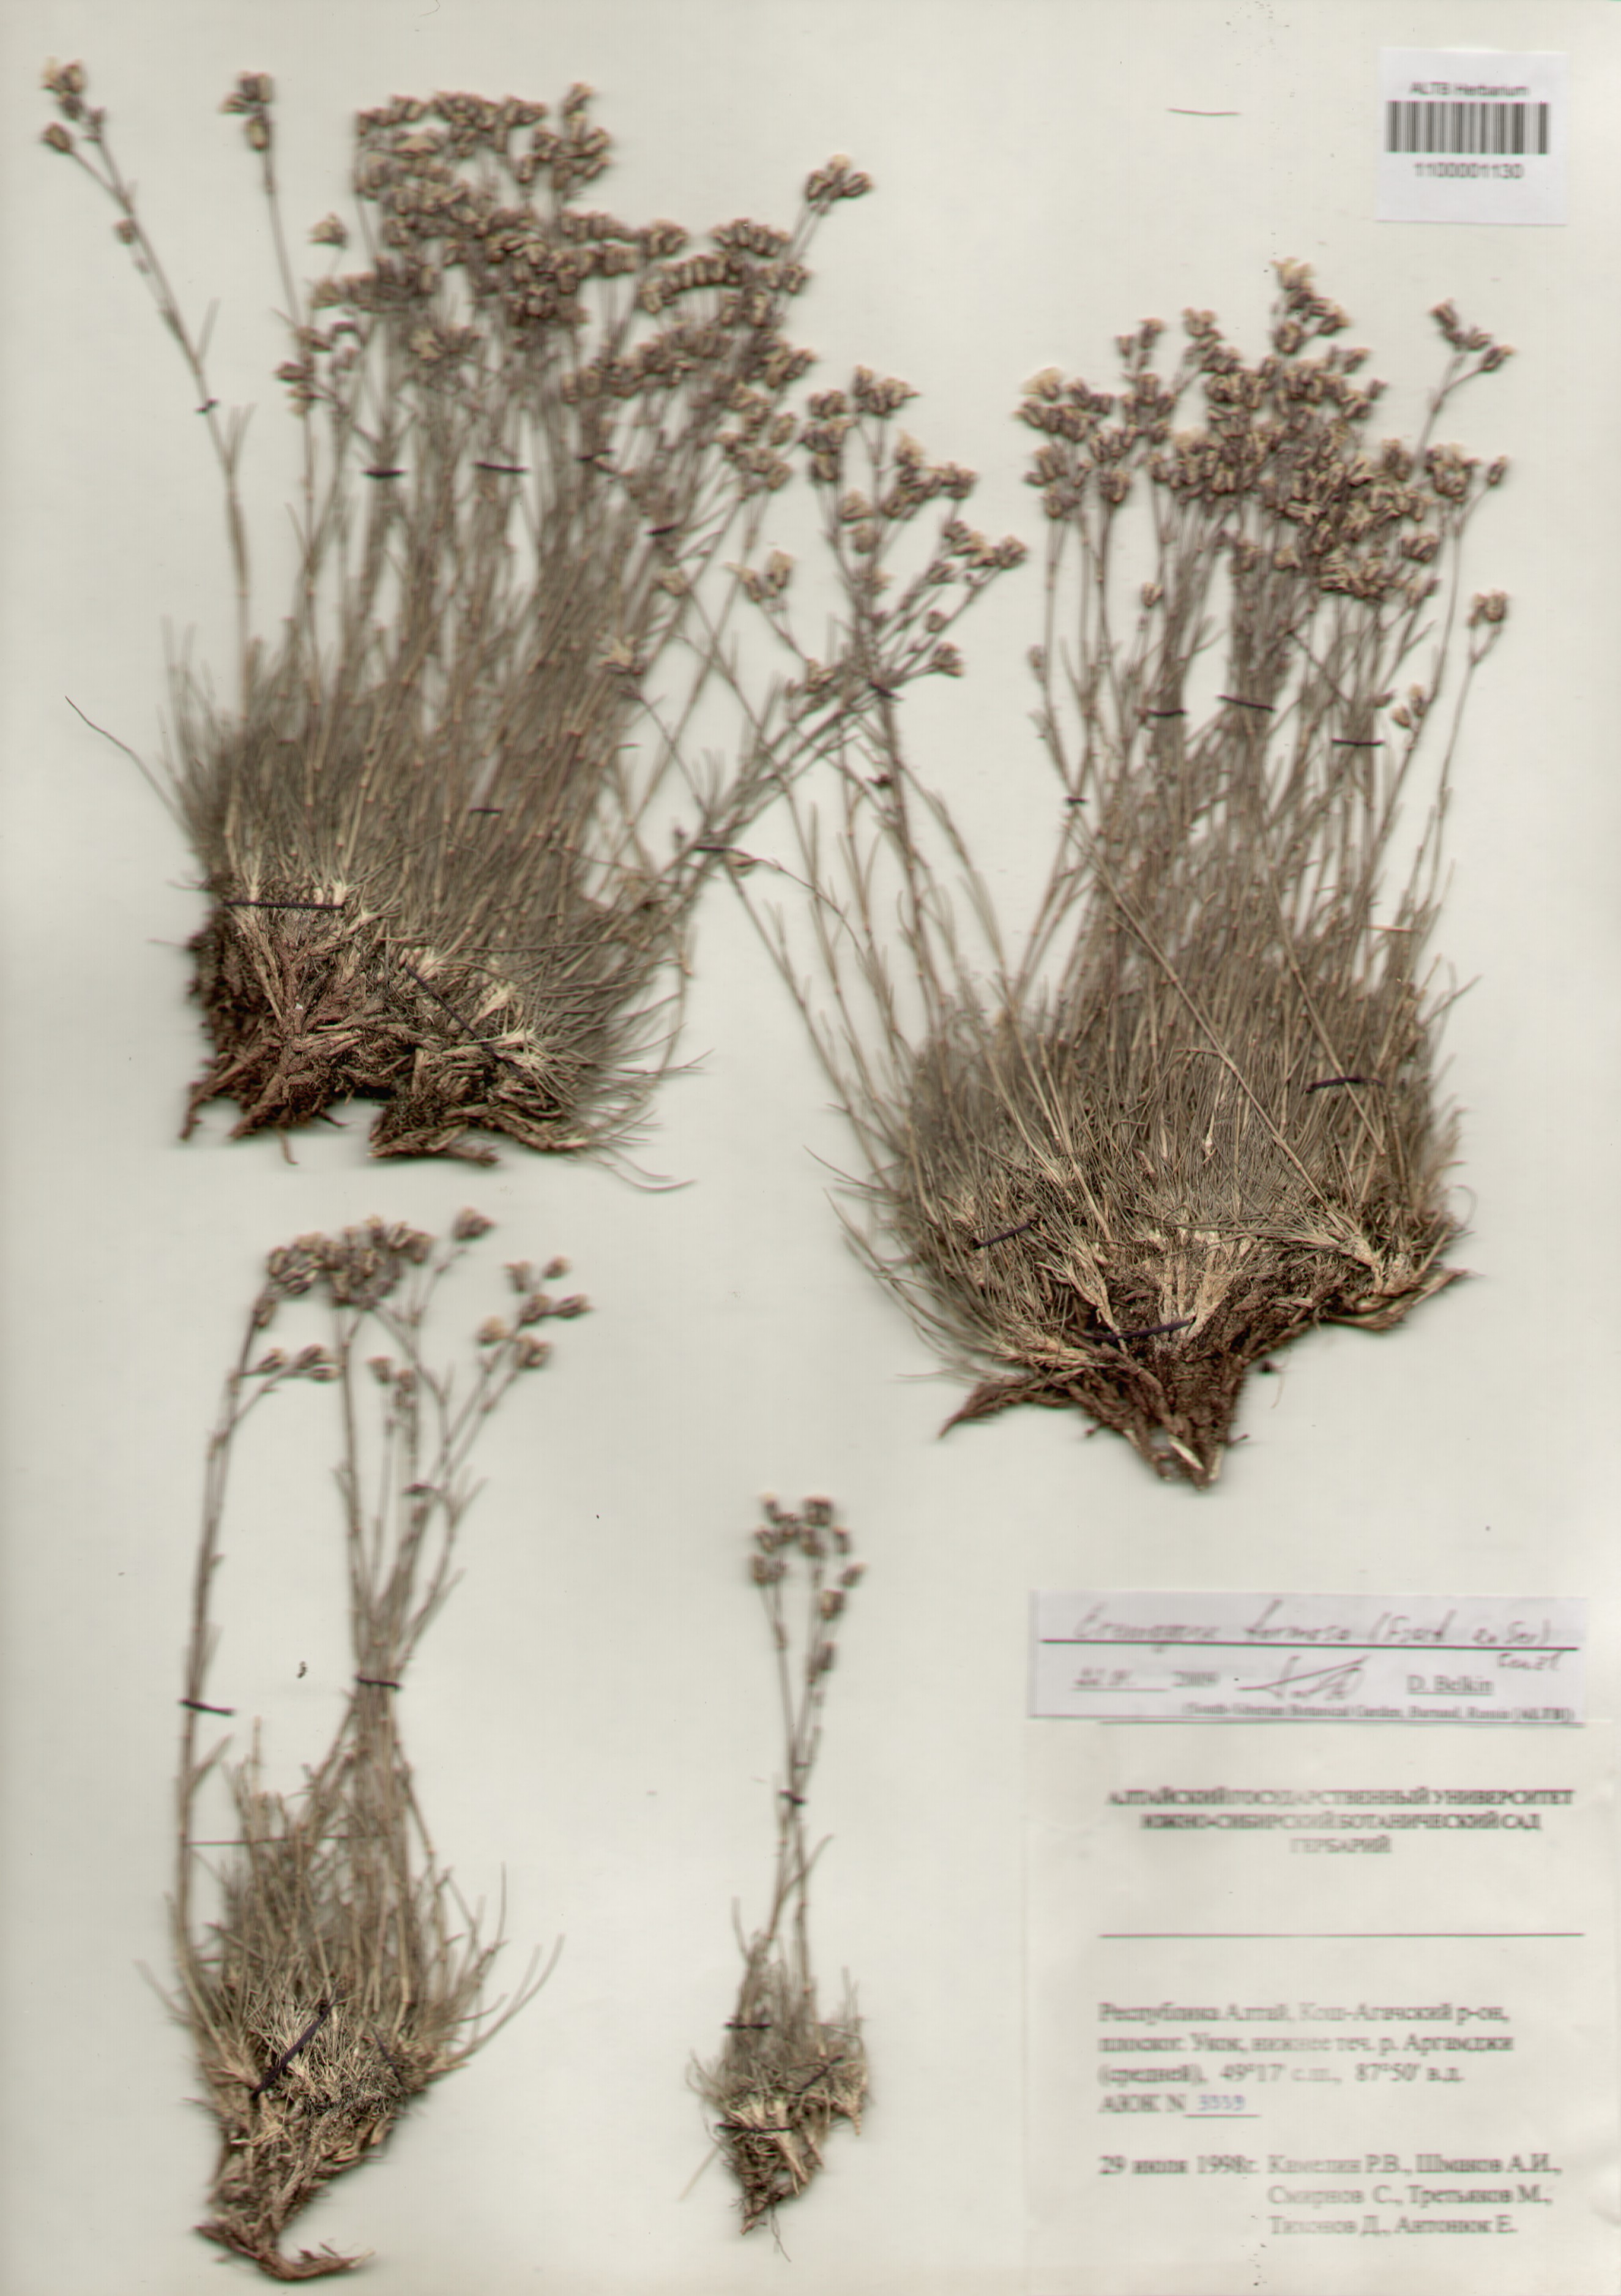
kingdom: Plantae
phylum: Tracheophyta
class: Magnoliopsida
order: Caryophyllales
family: Caryophyllaceae
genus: Eremogone
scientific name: Eremogone formosa
